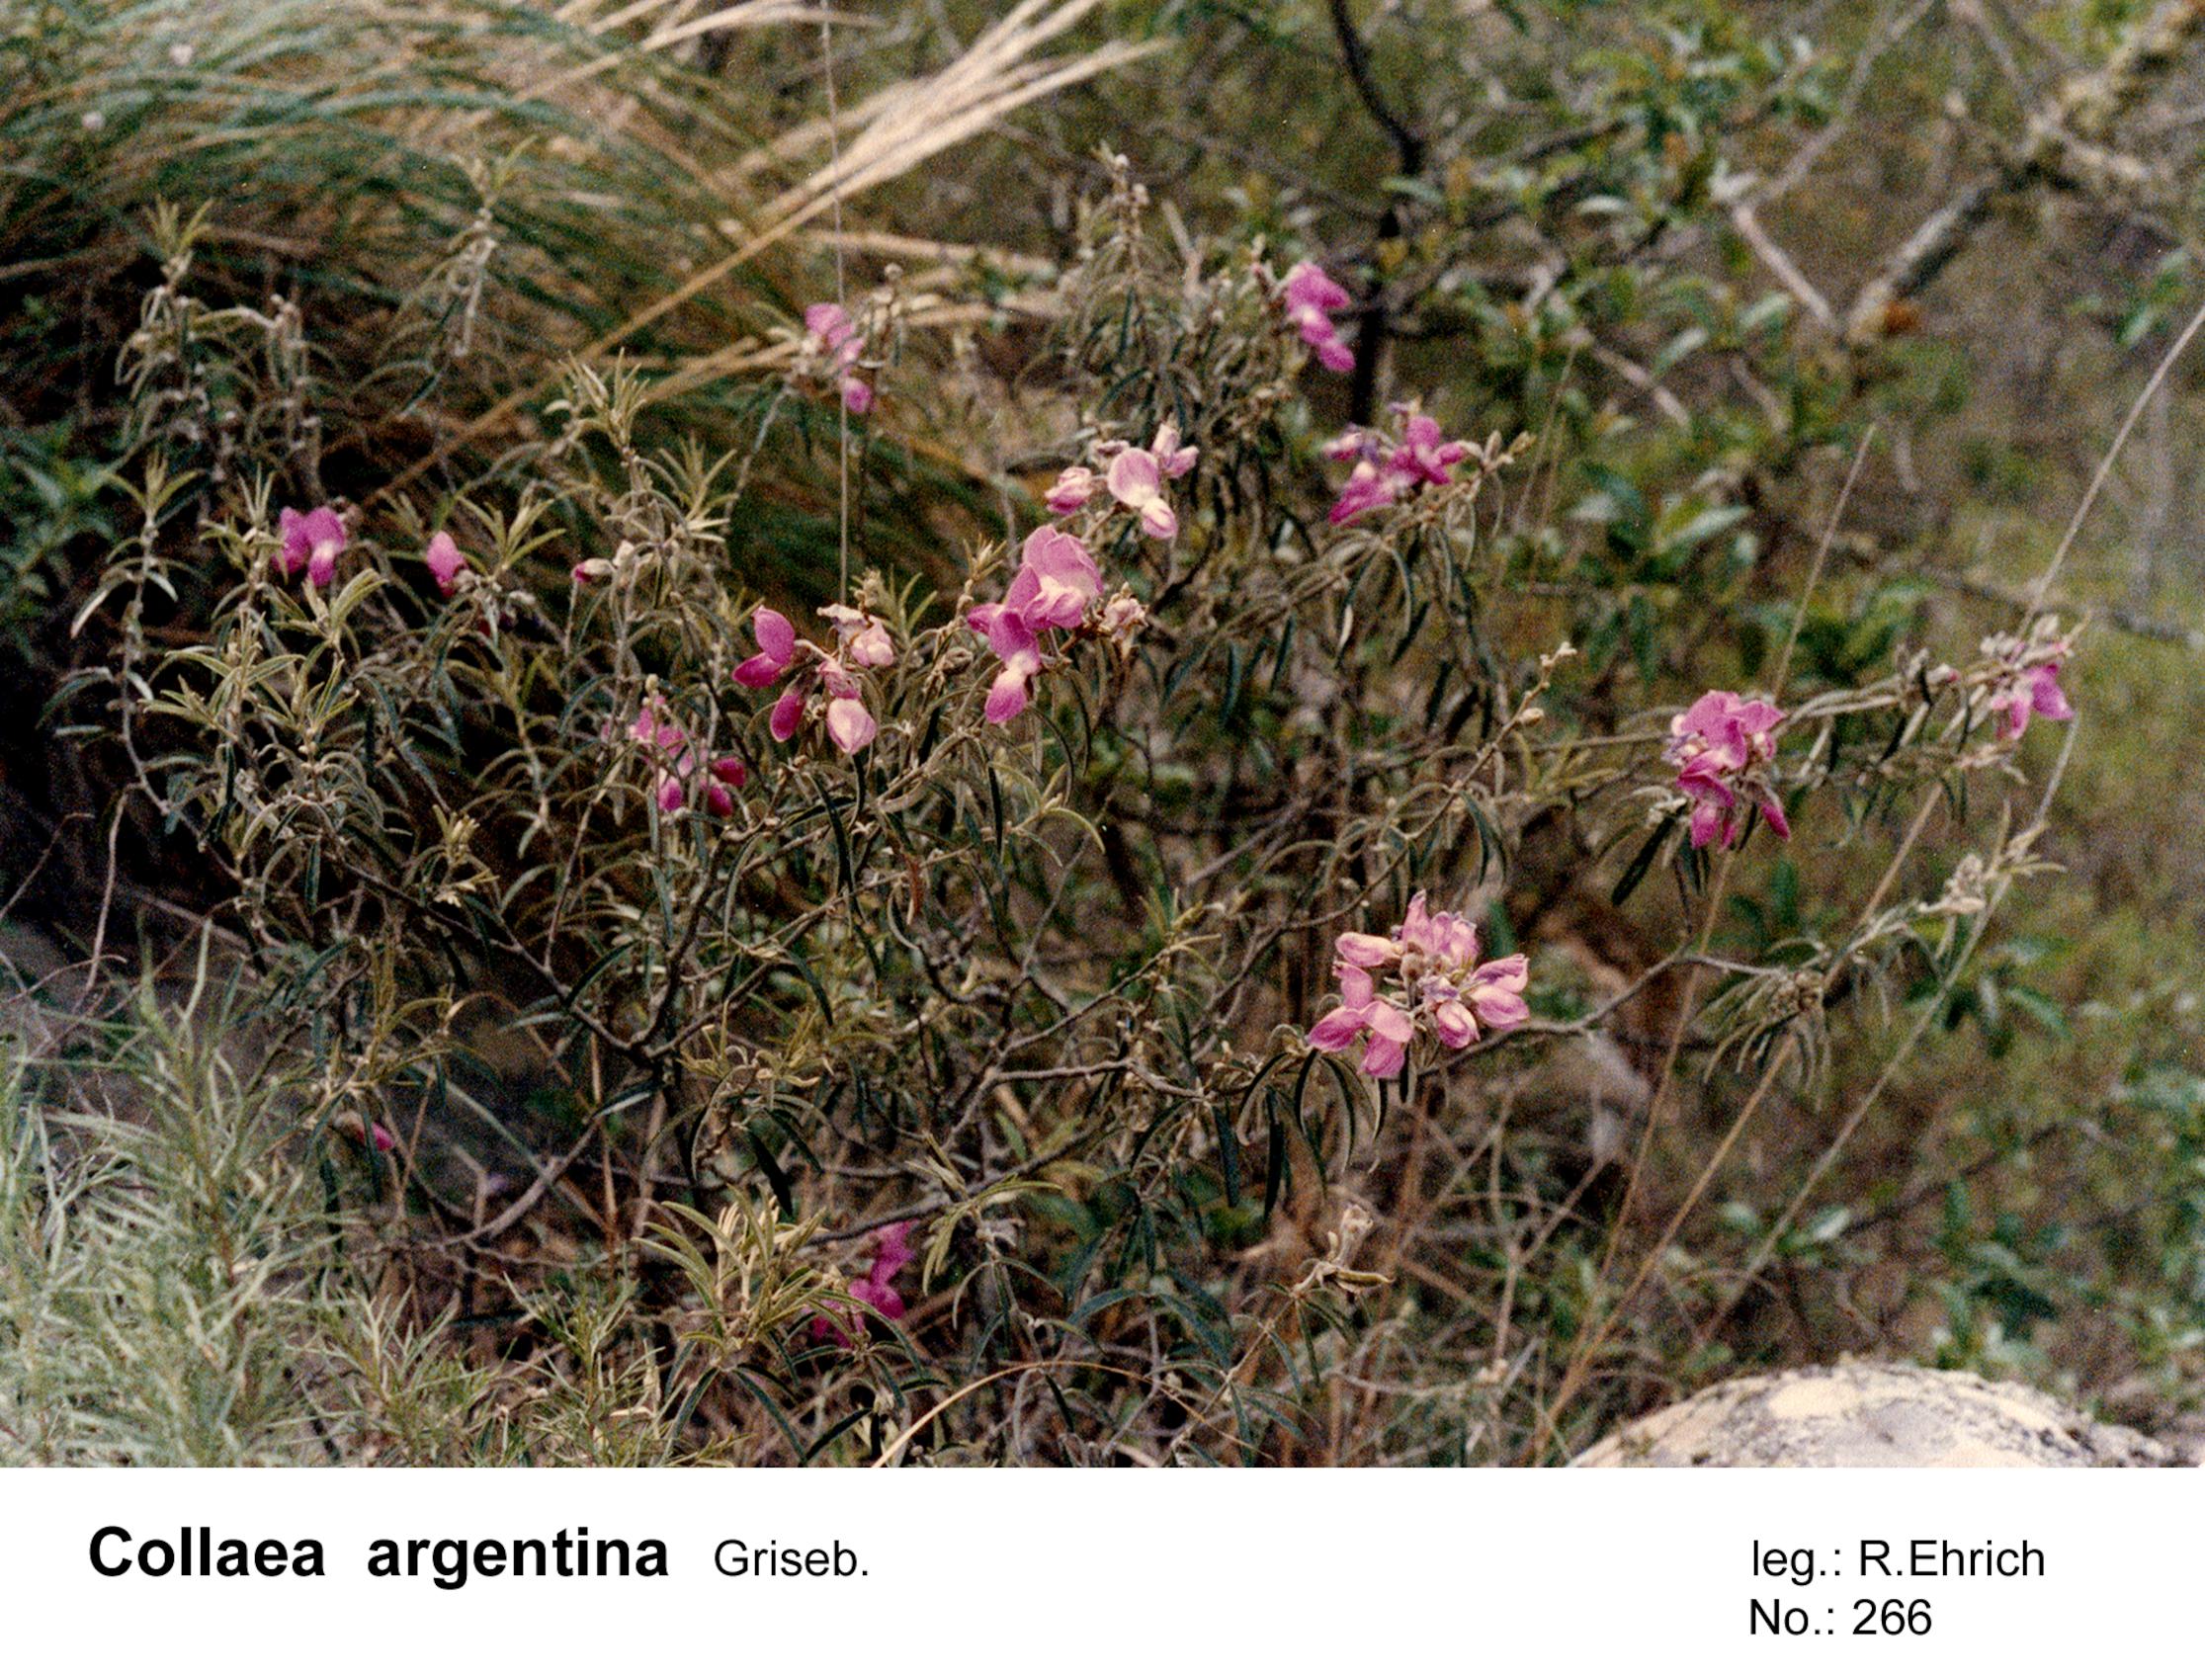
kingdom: Plantae
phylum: Tracheophyta
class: Magnoliopsida
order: Fabales
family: Fabaceae
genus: Nanogalactia
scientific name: Nanogalactia heterophylla
